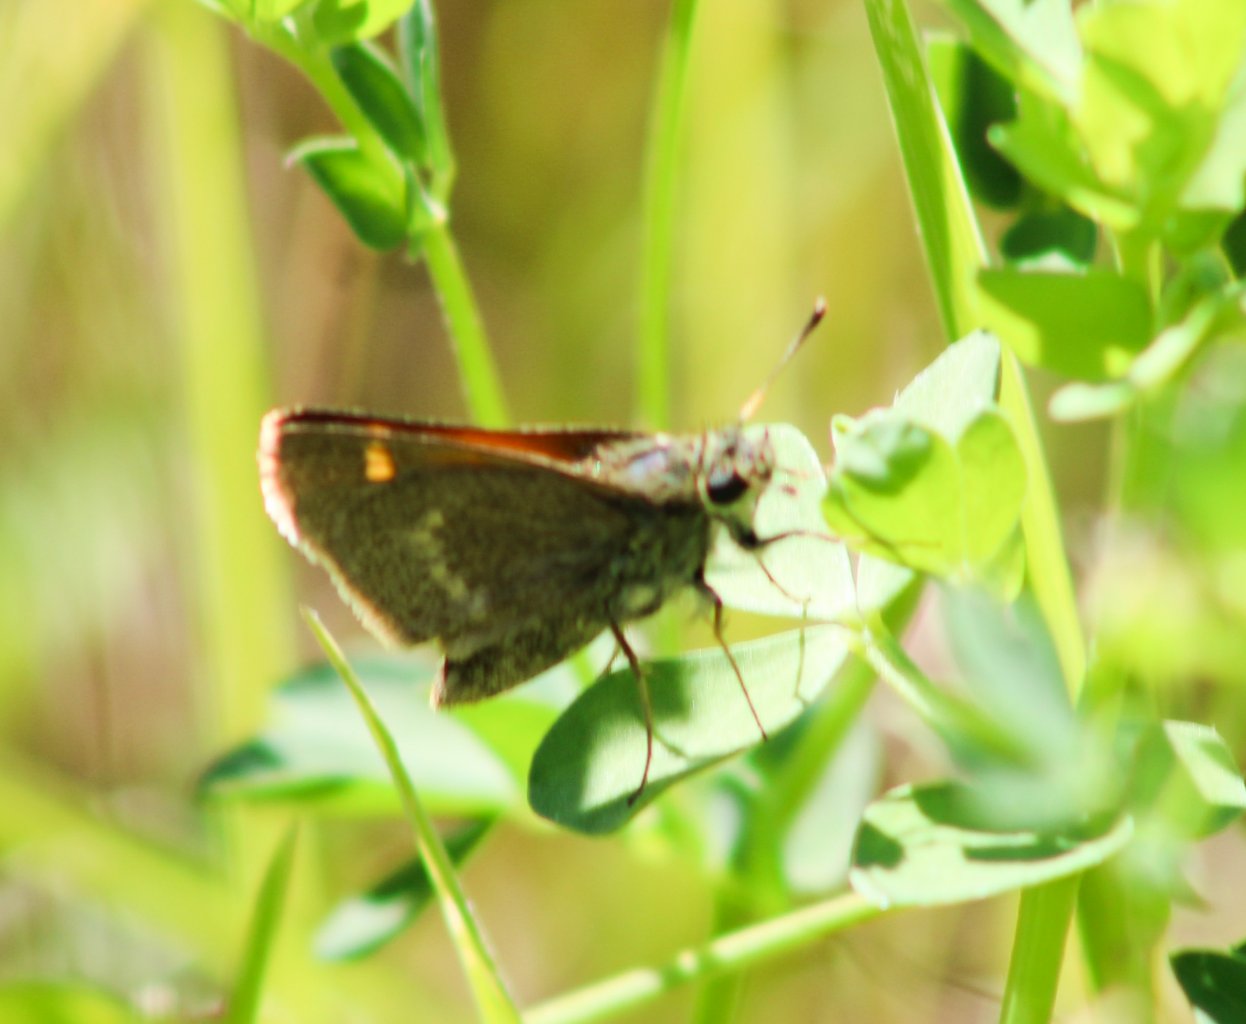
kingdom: Animalia
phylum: Arthropoda
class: Insecta
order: Lepidoptera
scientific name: Lepidoptera
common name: Butterflies
